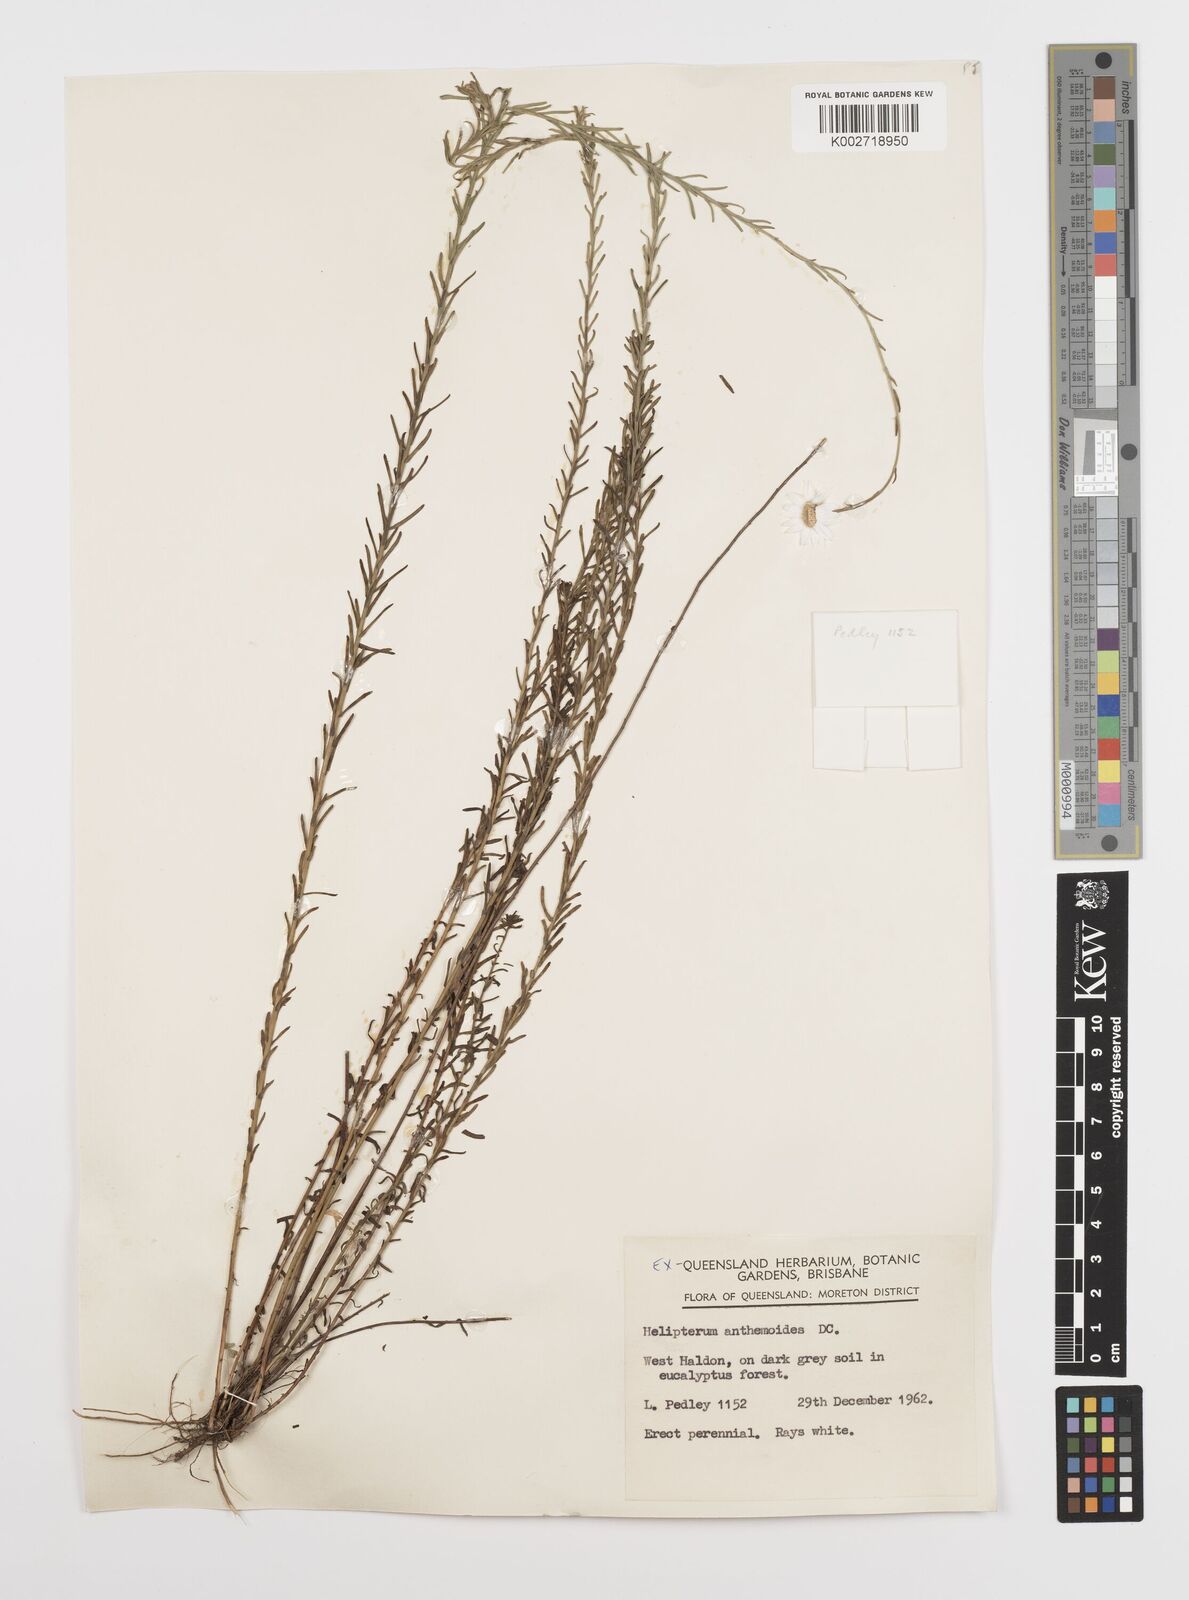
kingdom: Plantae
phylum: Tracheophyta
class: Magnoliopsida
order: Asterales
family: Asteraceae
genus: Rhodanthe
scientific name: Rhodanthe anthemoides
